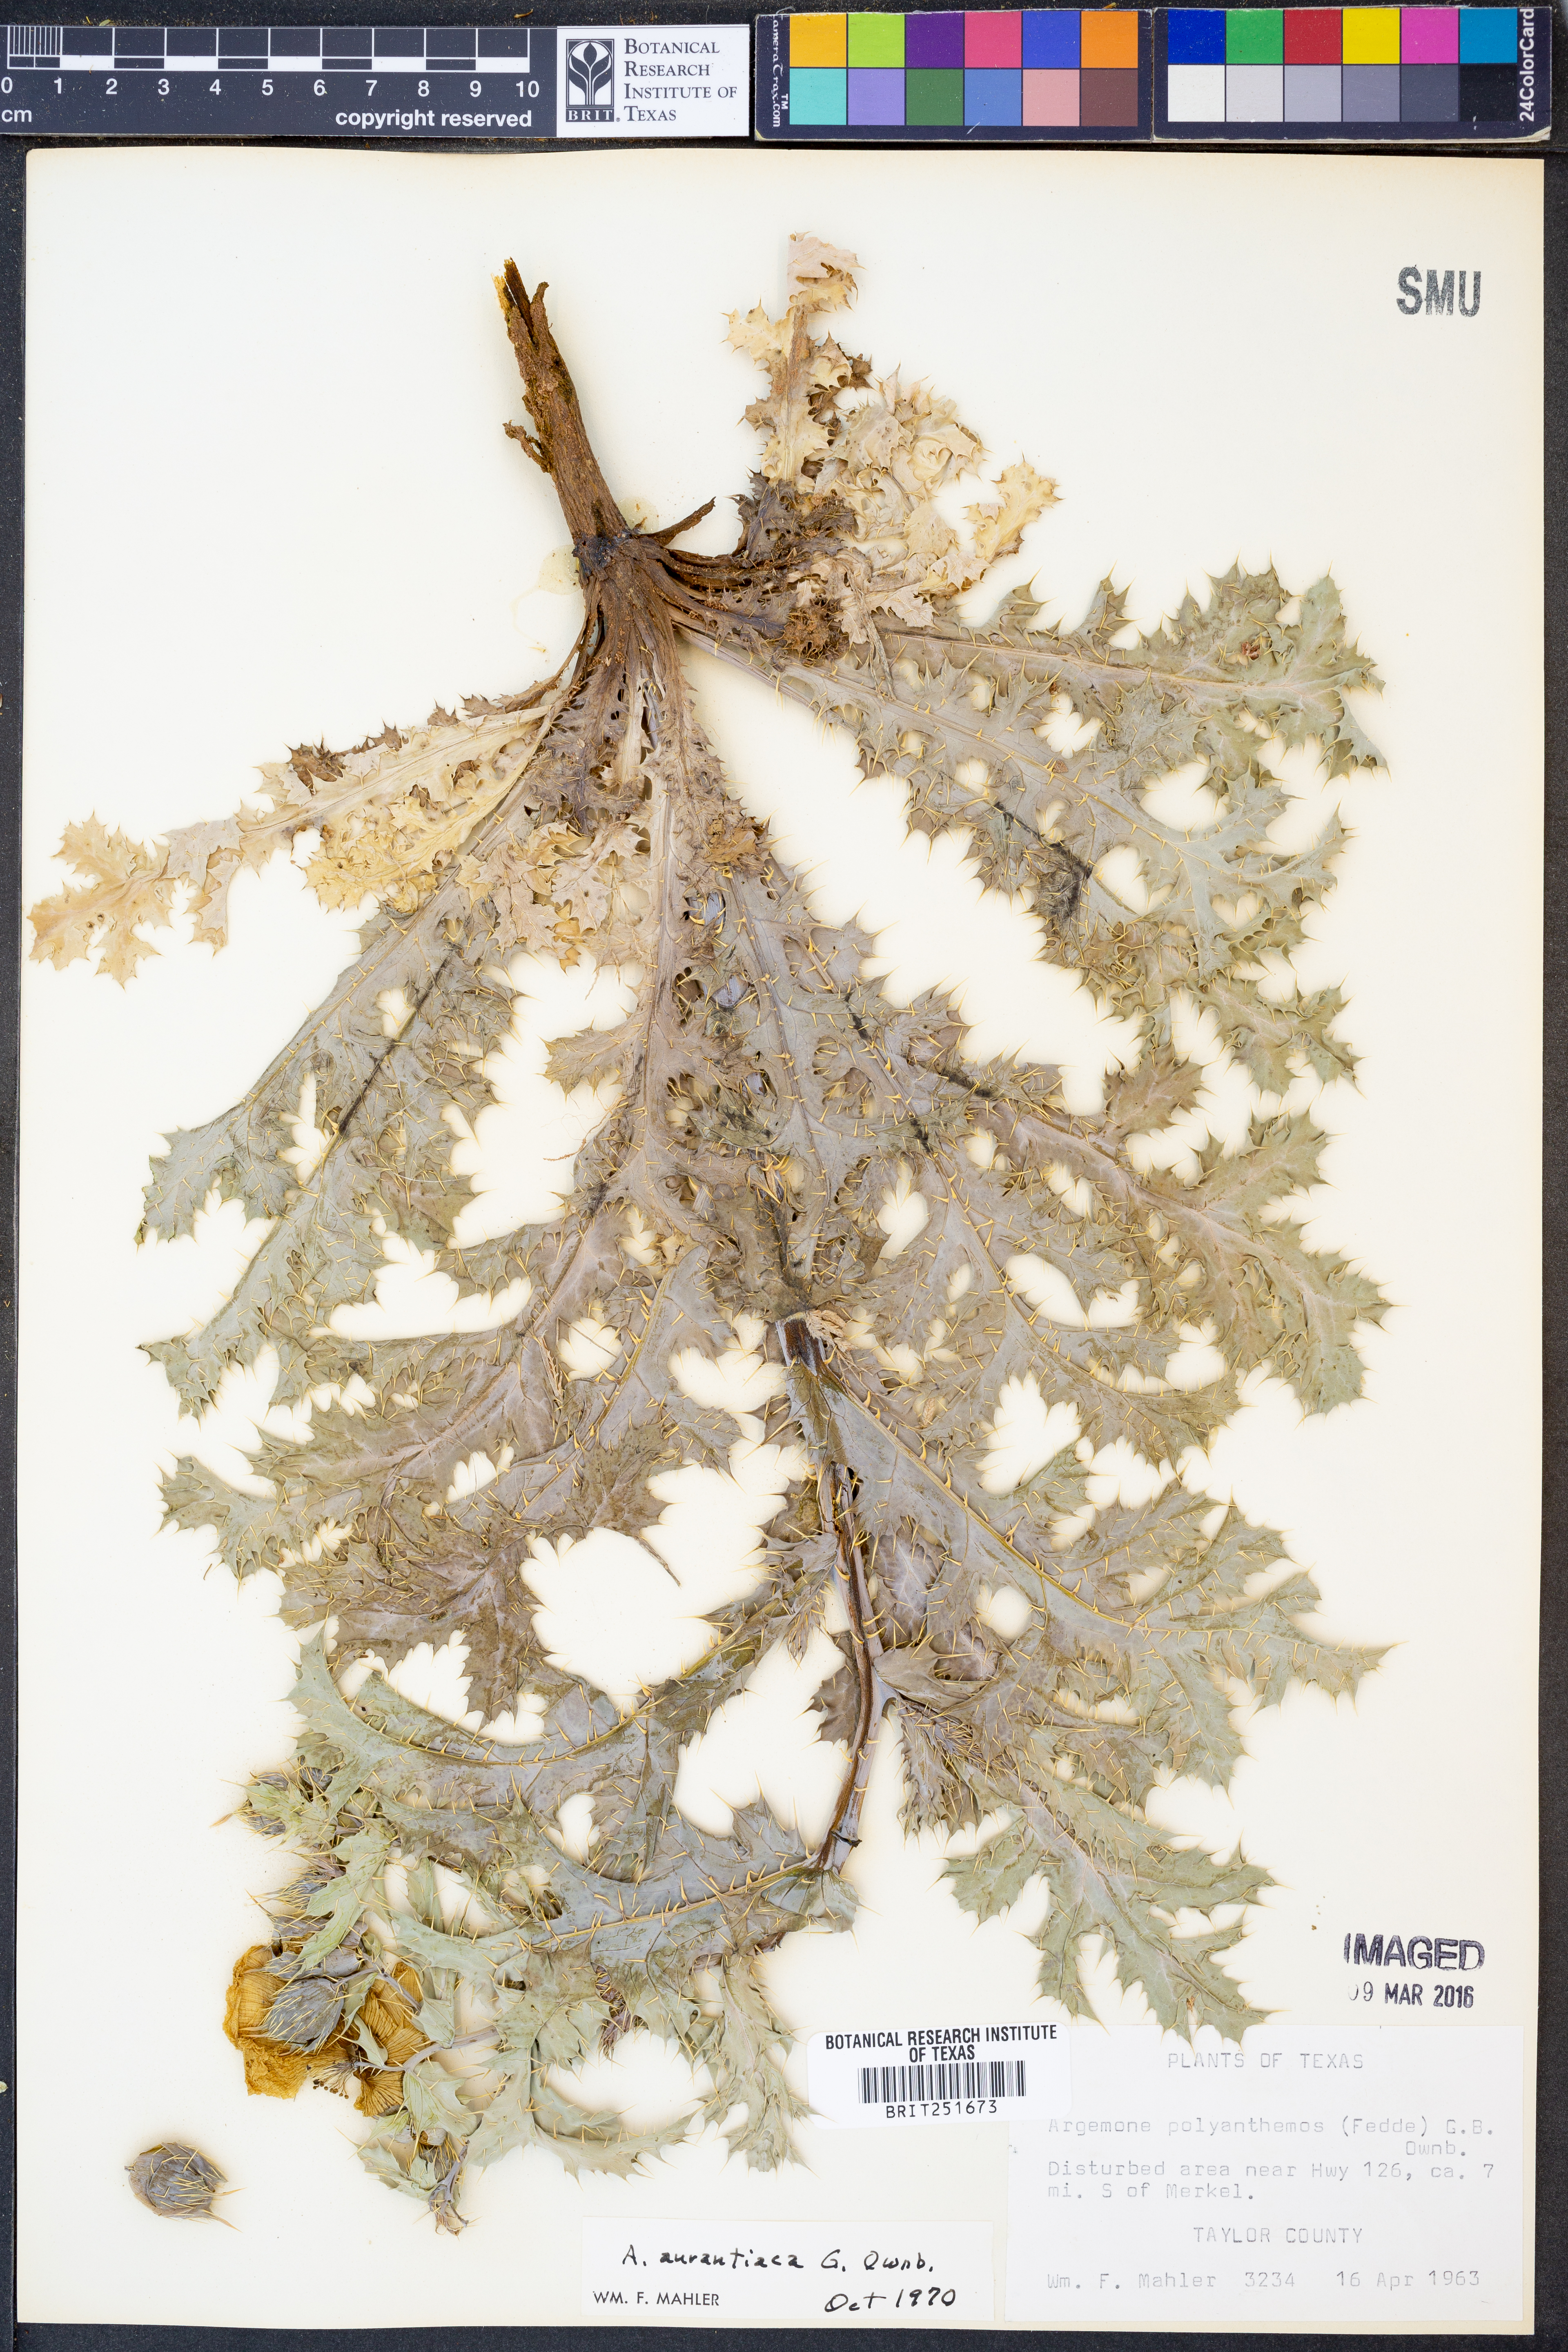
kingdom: Plantae
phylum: Tracheophyta
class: Magnoliopsida
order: Ranunculales
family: Papaveraceae
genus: Argemone
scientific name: Argemone aurantiaca
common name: Texas prickly-poppy
